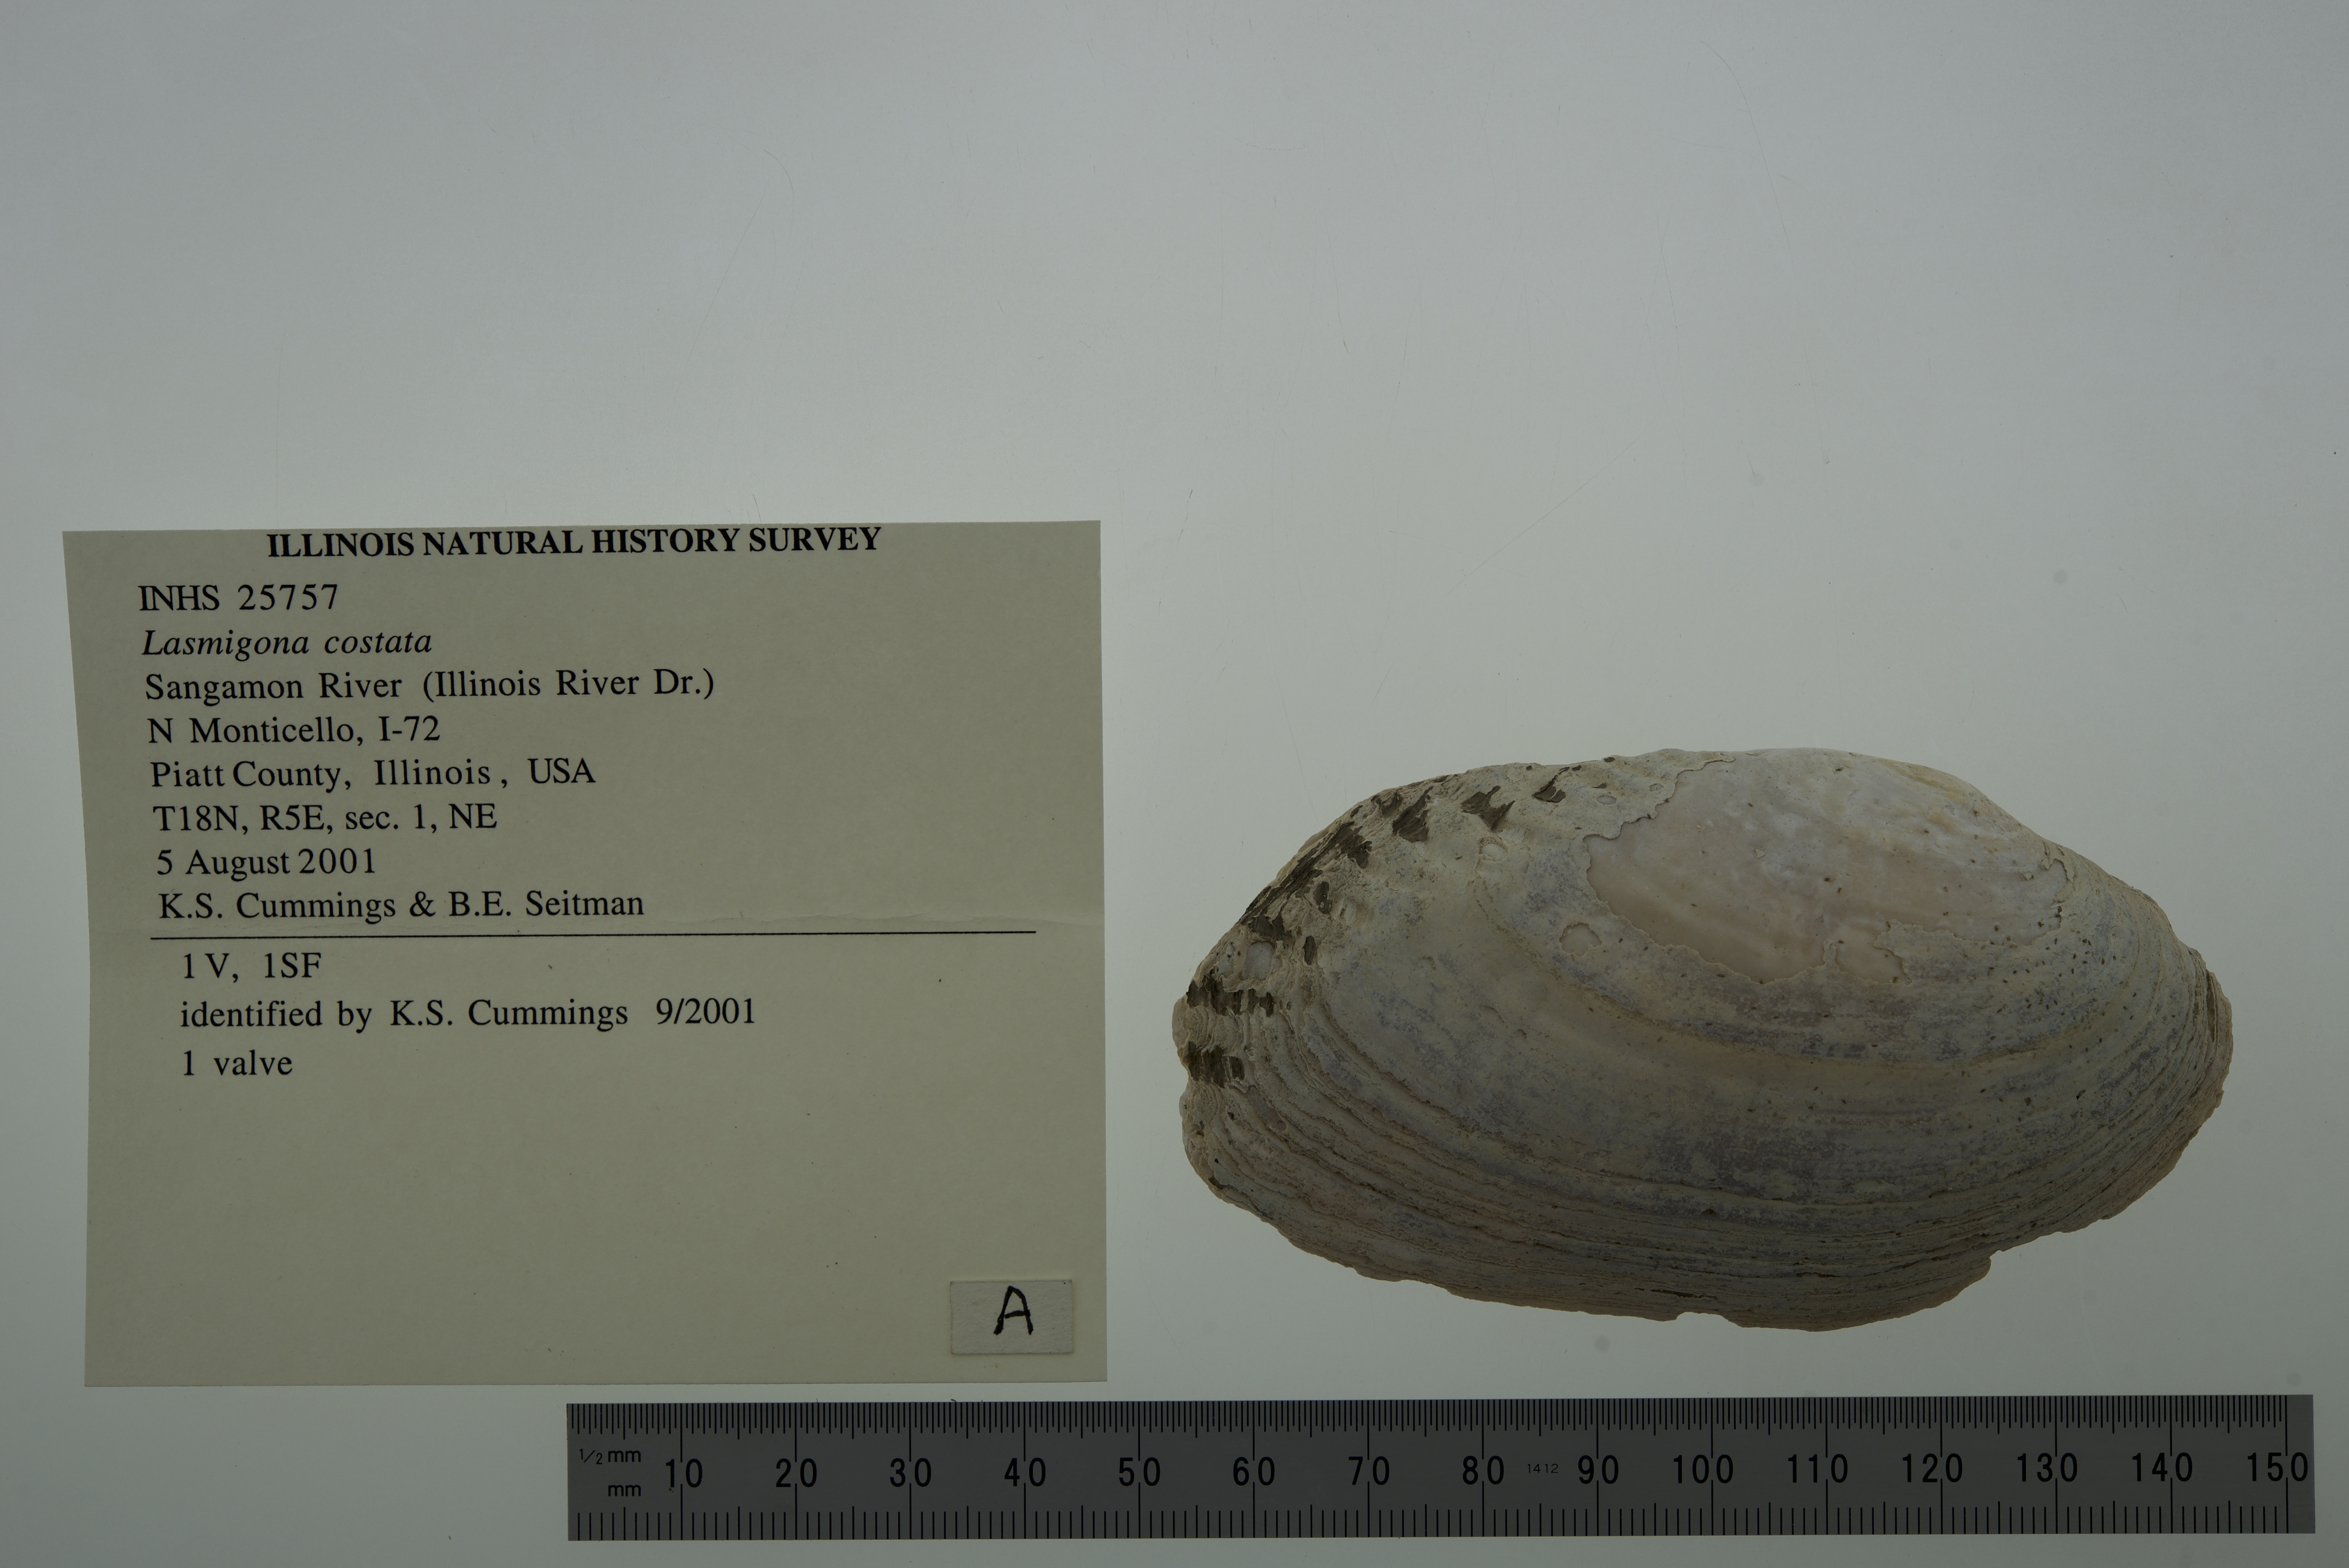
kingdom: Animalia
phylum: Mollusca
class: Bivalvia
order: Unionida
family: Unionidae
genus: Lasmigona
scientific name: Lasmigona costata
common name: Flutedshell
